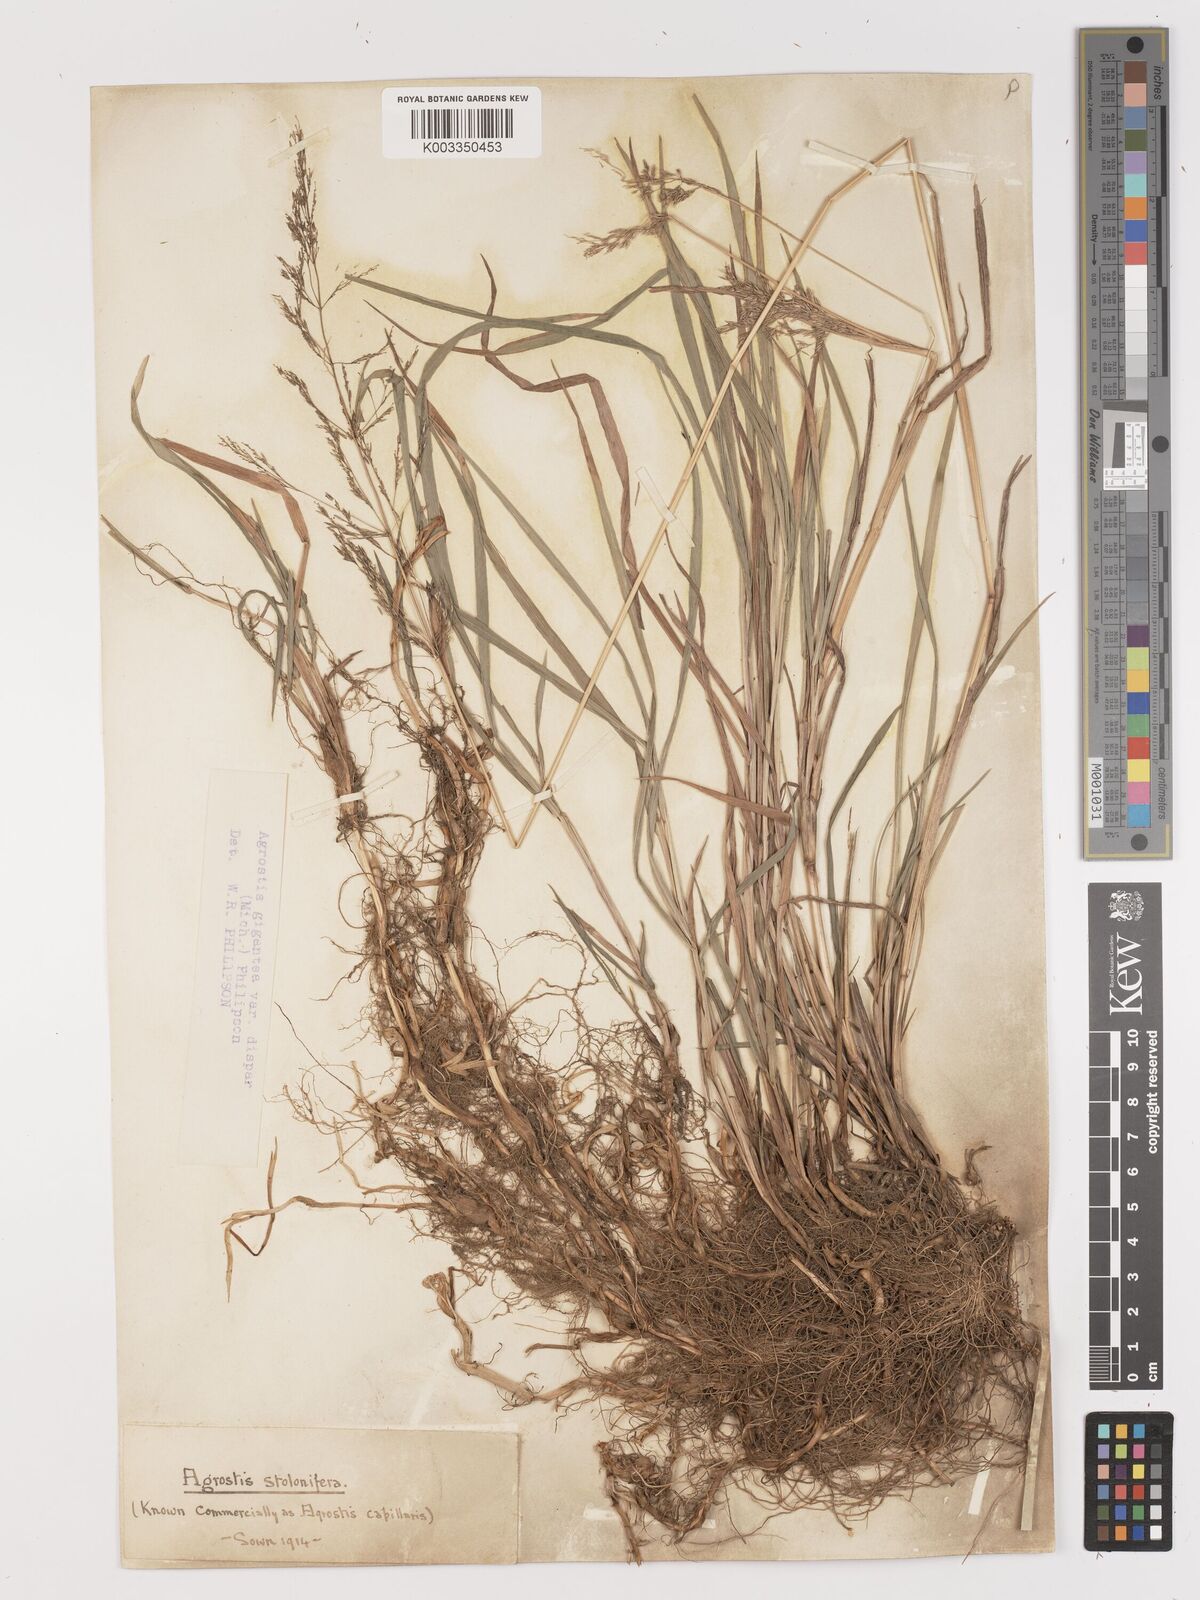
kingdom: Plantae
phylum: Tracheophyta
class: Liliopsida
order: Poales
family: Poaceae
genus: Agrostis
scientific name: Agrostis gigantea
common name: Black bent
